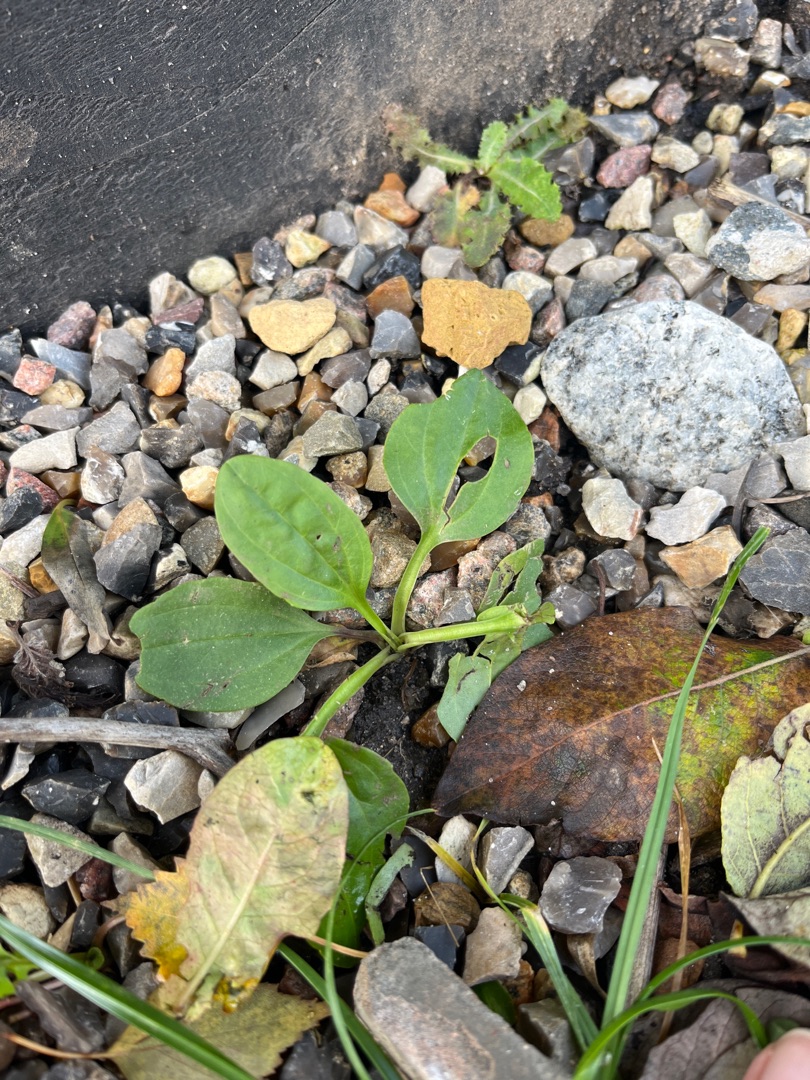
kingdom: Plantae
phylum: Tracheophyta
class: Magnoliopsida
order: Lamiales
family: Plantaginaceae
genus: Plantago
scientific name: Plantago major
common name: Glat vejbred
